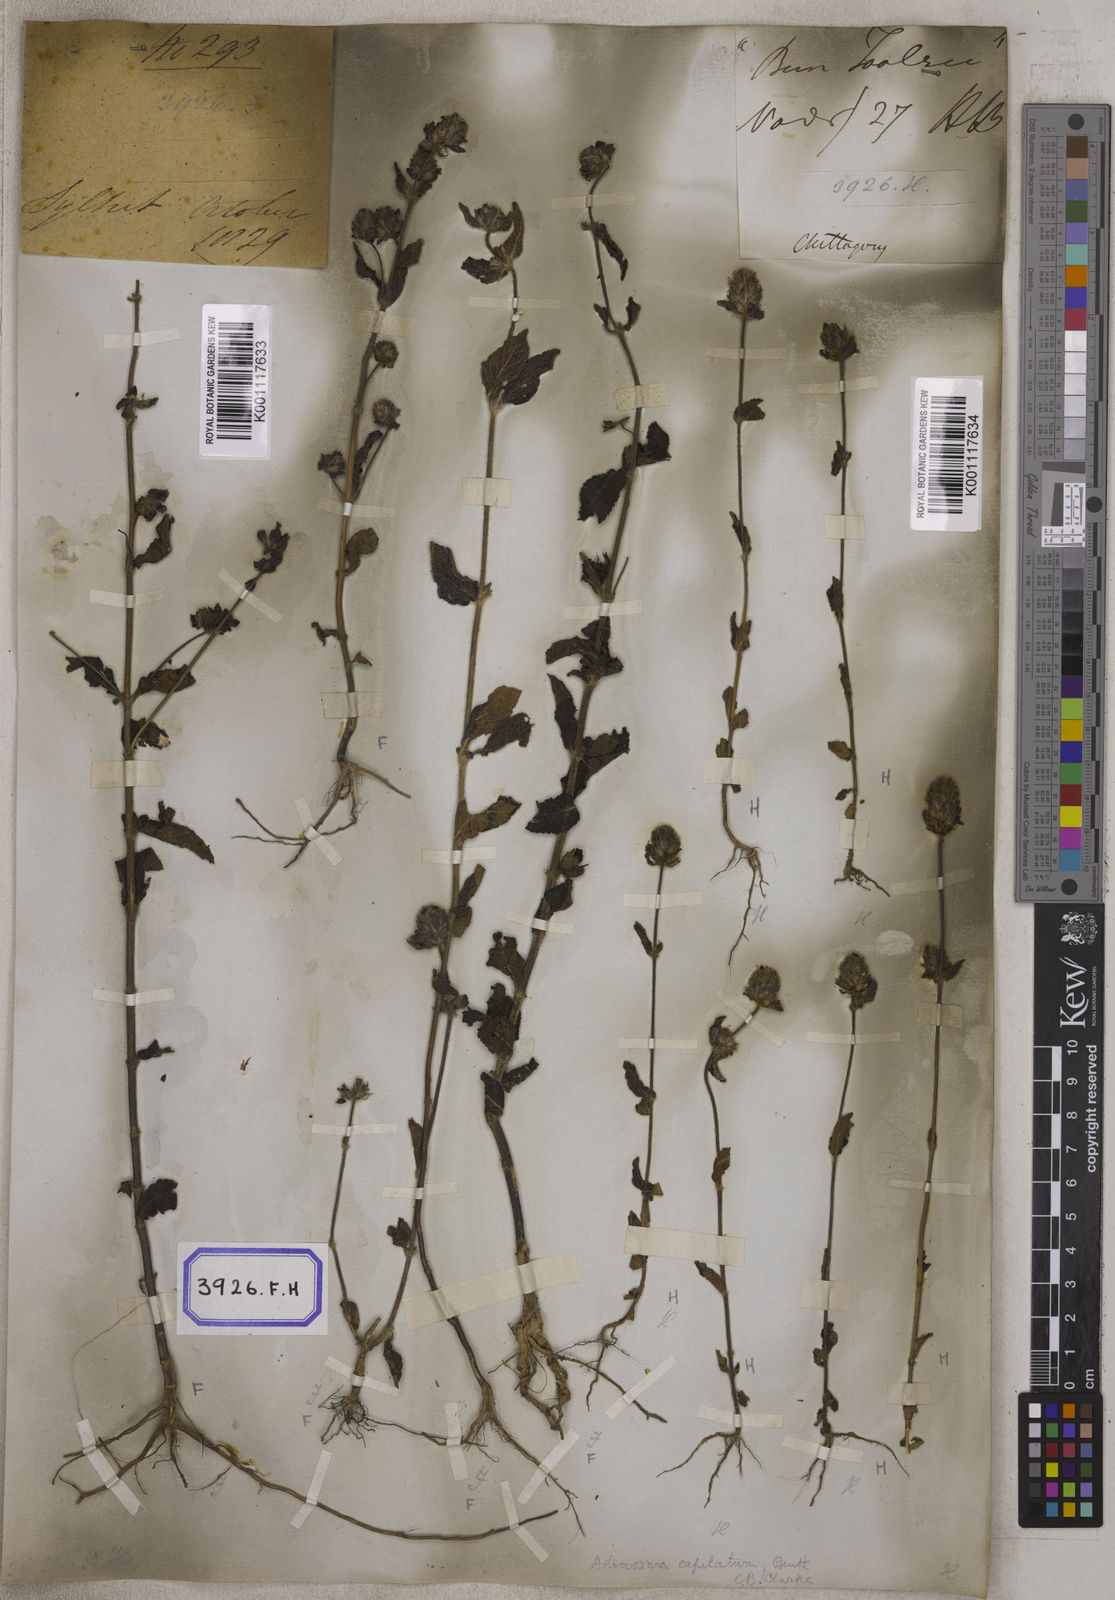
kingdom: Plantae
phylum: Tracheophyta
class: Magnoliopsida
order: Lamiales
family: Plantaginaceae
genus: Stemodia
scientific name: Stemodia
